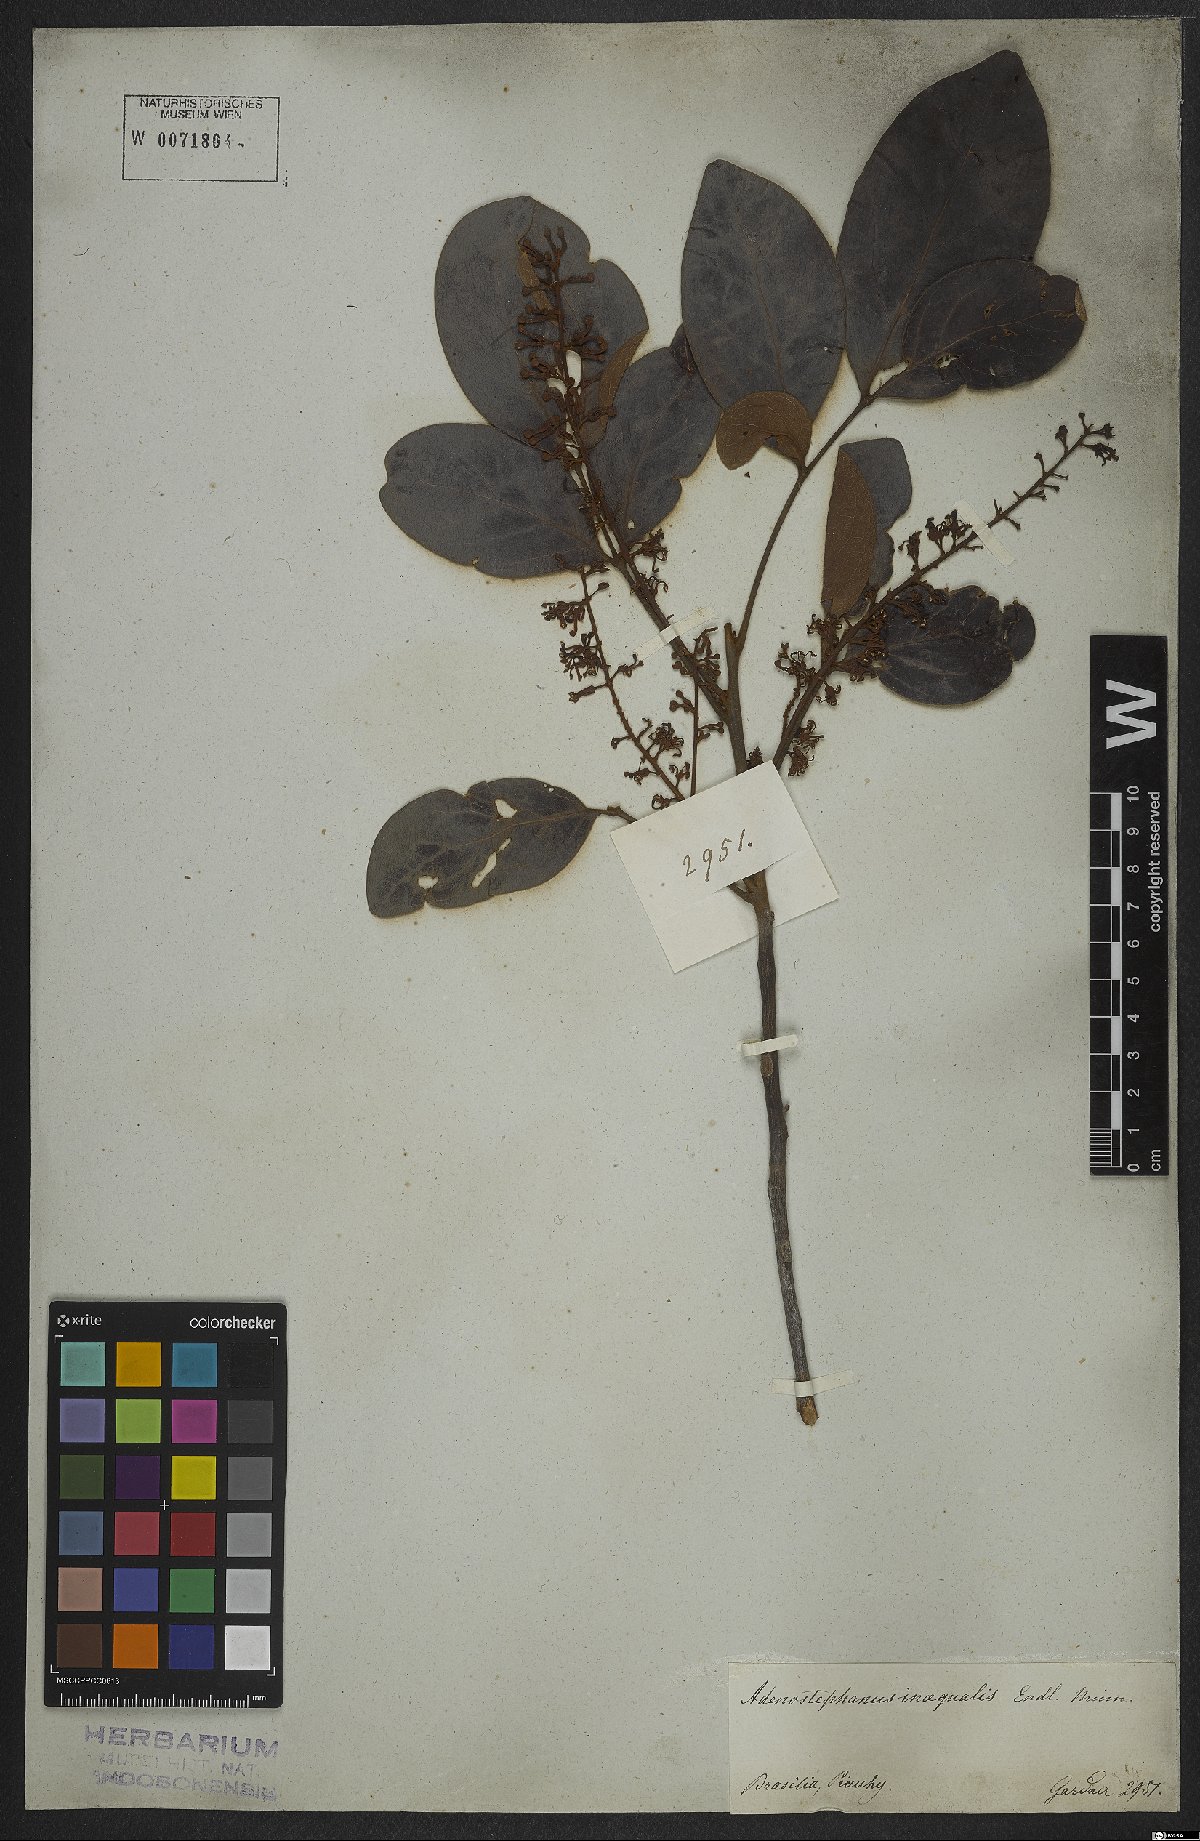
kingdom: Plantae
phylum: Tracheophyta
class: Magnoliopsida
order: Proteales
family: Proteaceae
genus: Euplassa
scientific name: Euplassa inaequalis
